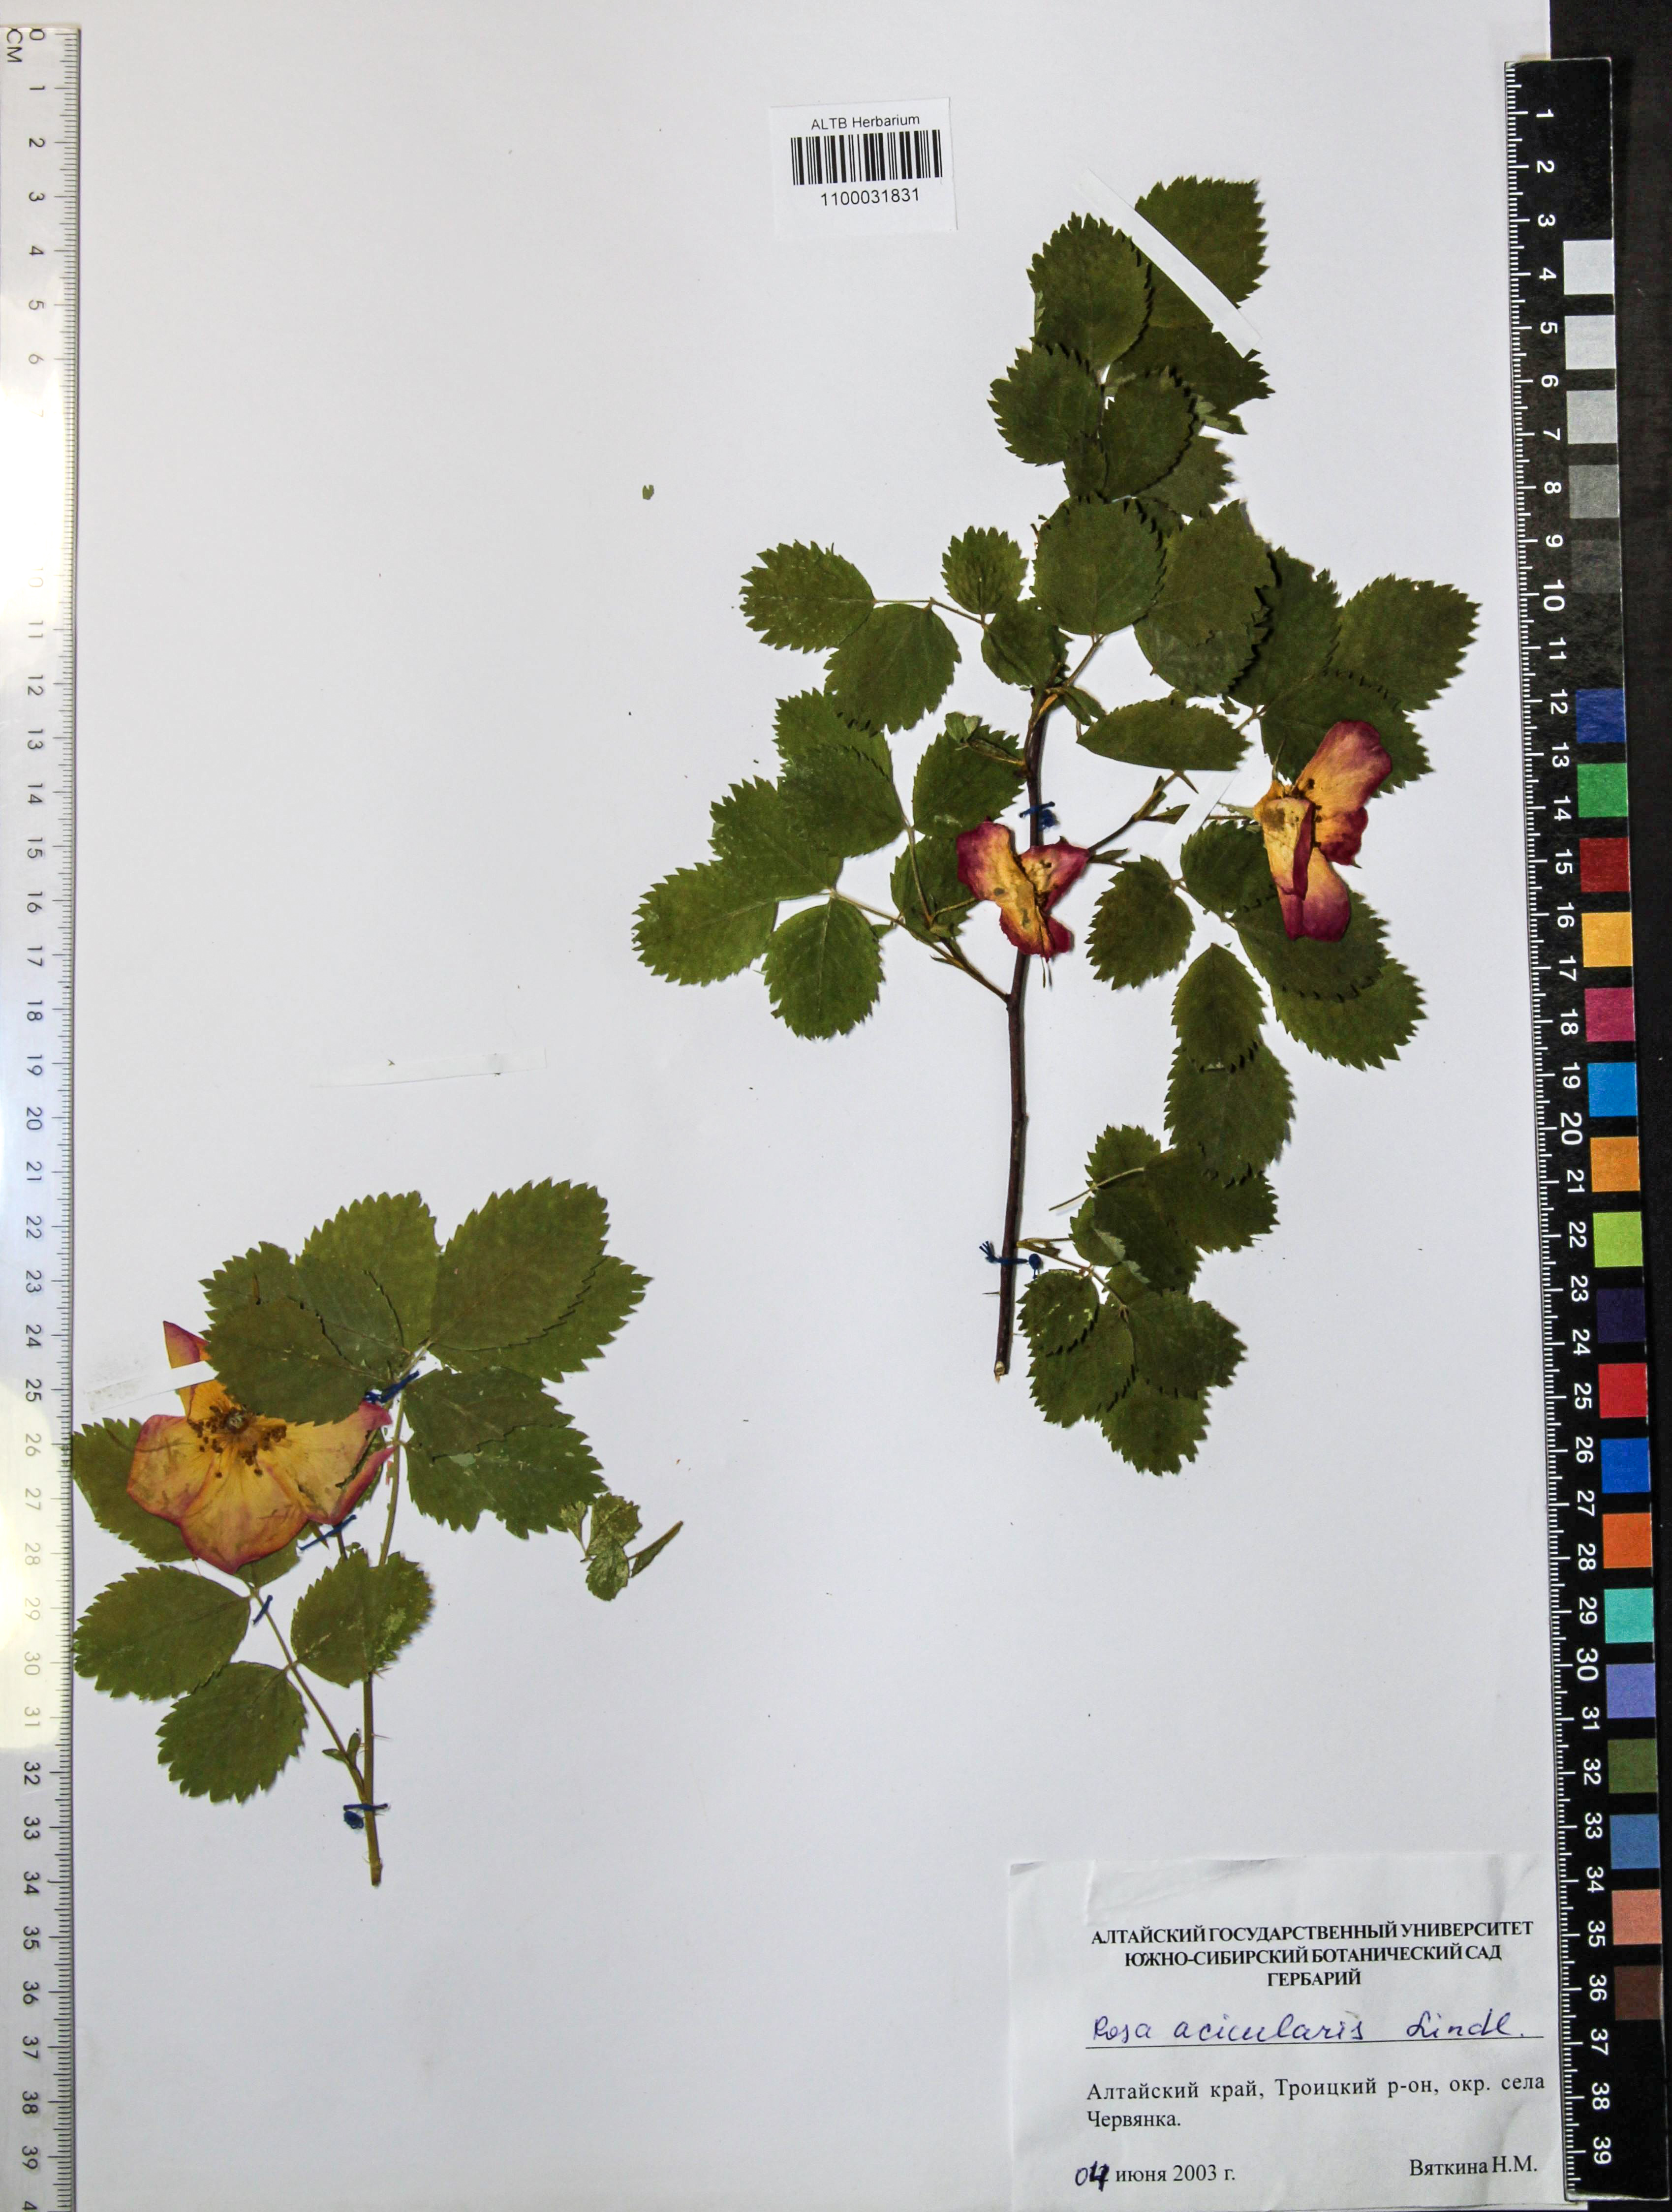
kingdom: Plantae
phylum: Tracheophyta
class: Magnoliopsida
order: Rosales
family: Rosaceae
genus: Rosa
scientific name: Rosa acicularis
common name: Prickly rose
